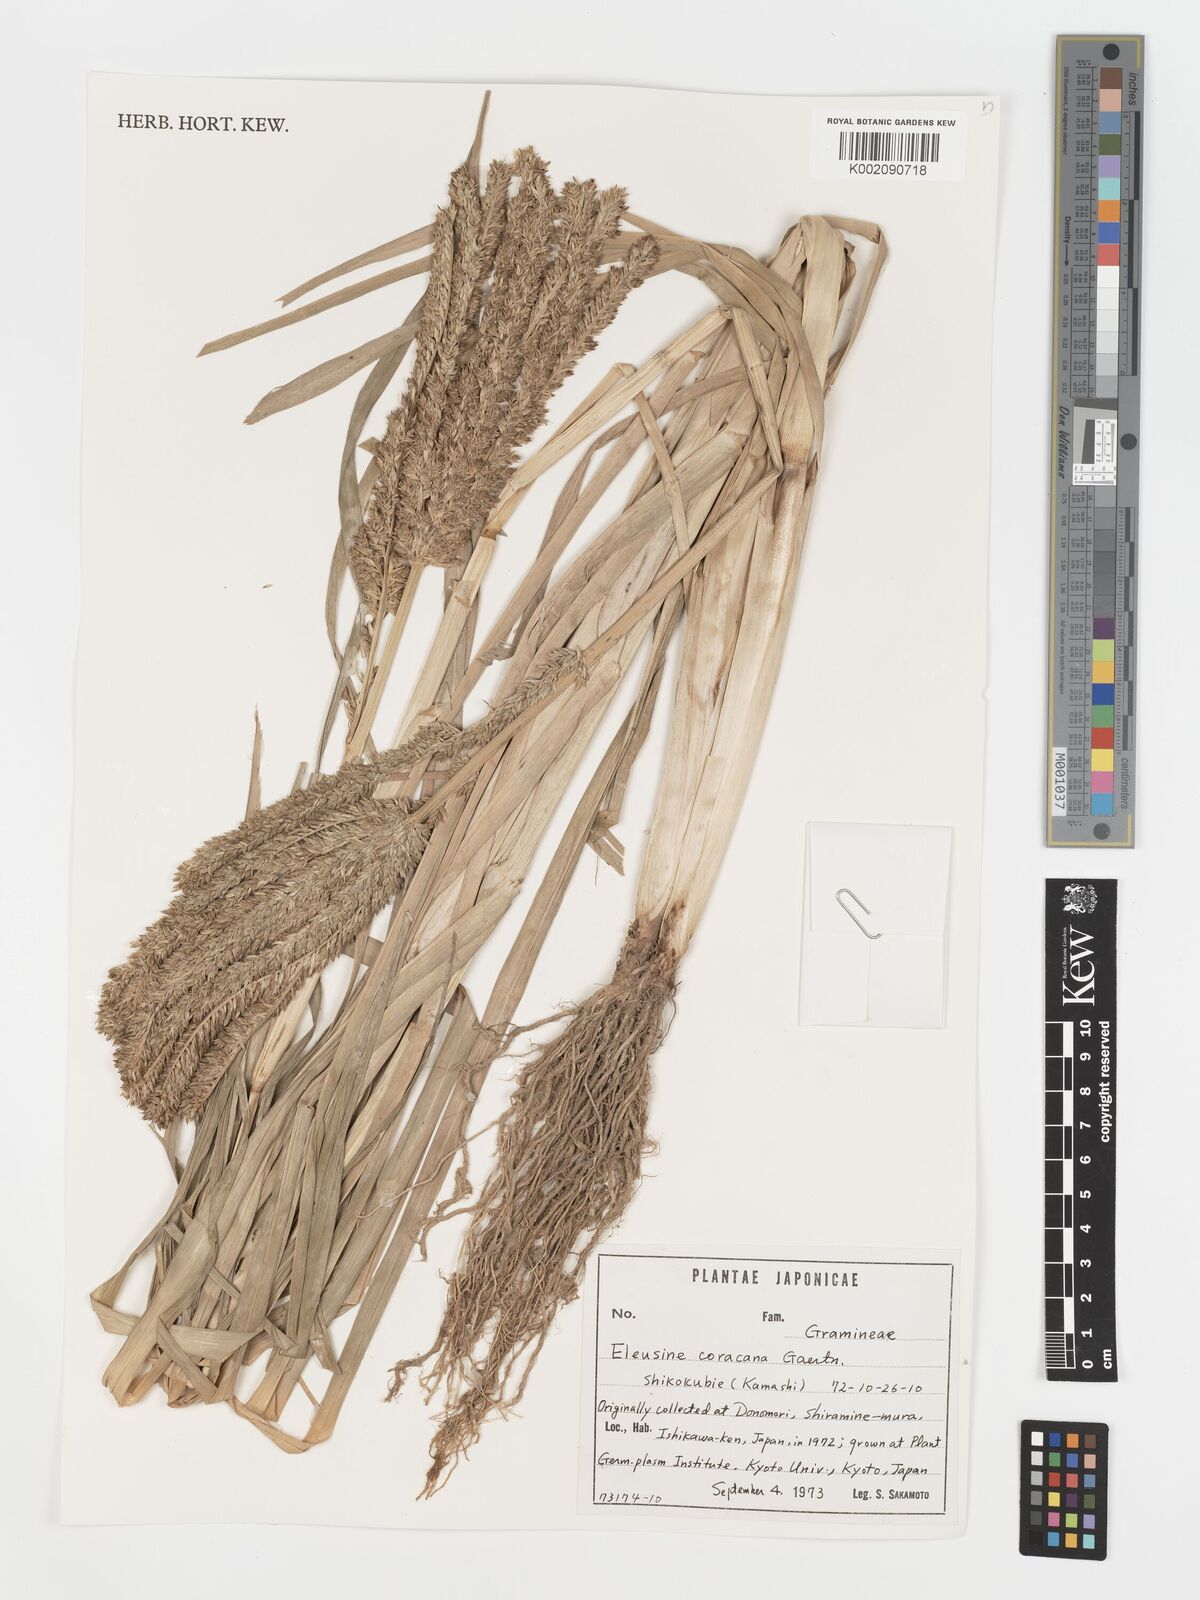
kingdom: Plantae
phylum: Tracheophyta
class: Liliopsida
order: Poales
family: Poaceae
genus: Eleusine
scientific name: Eleusine coracana
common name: Finger millet
